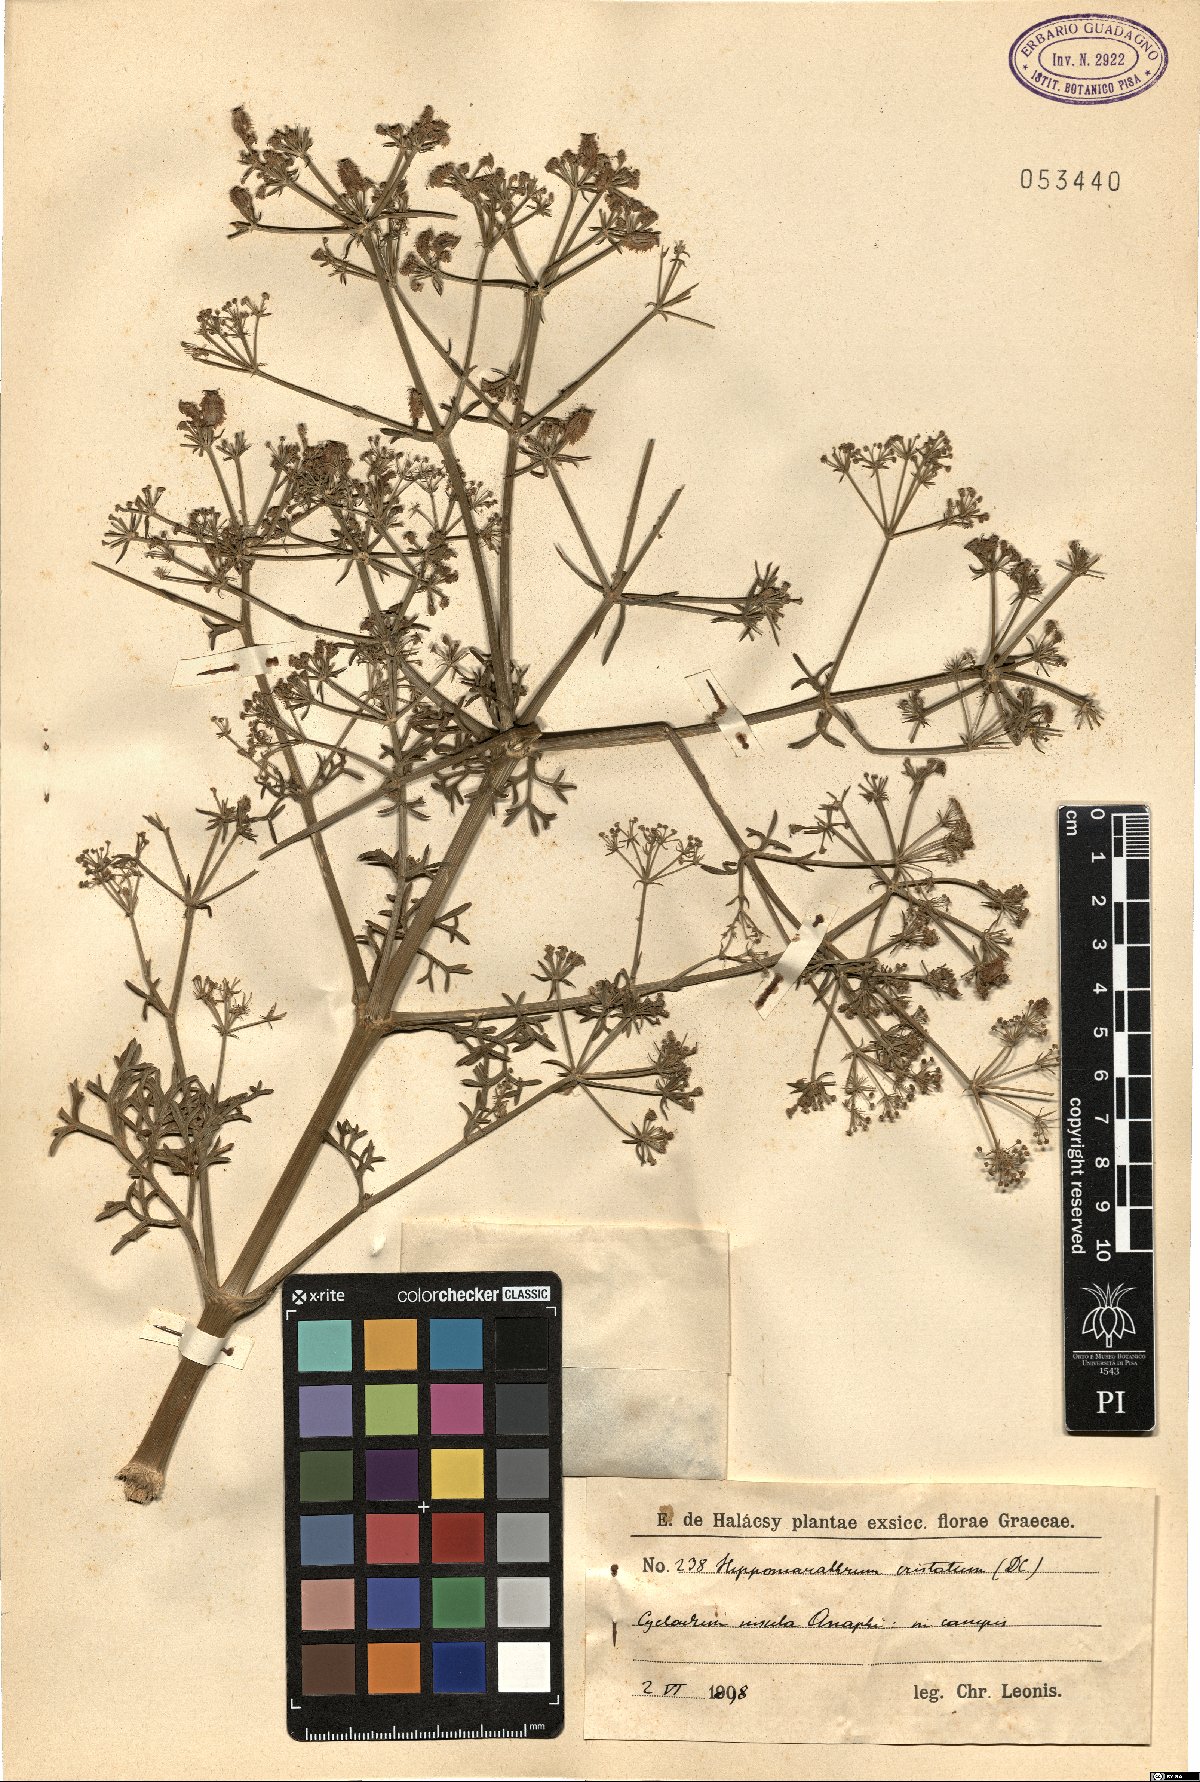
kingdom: Plantae
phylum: Tracheophyta
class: Magnoliopsida
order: Apiales
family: Apiaceae
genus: Cachrys
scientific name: Cachrys cristata
